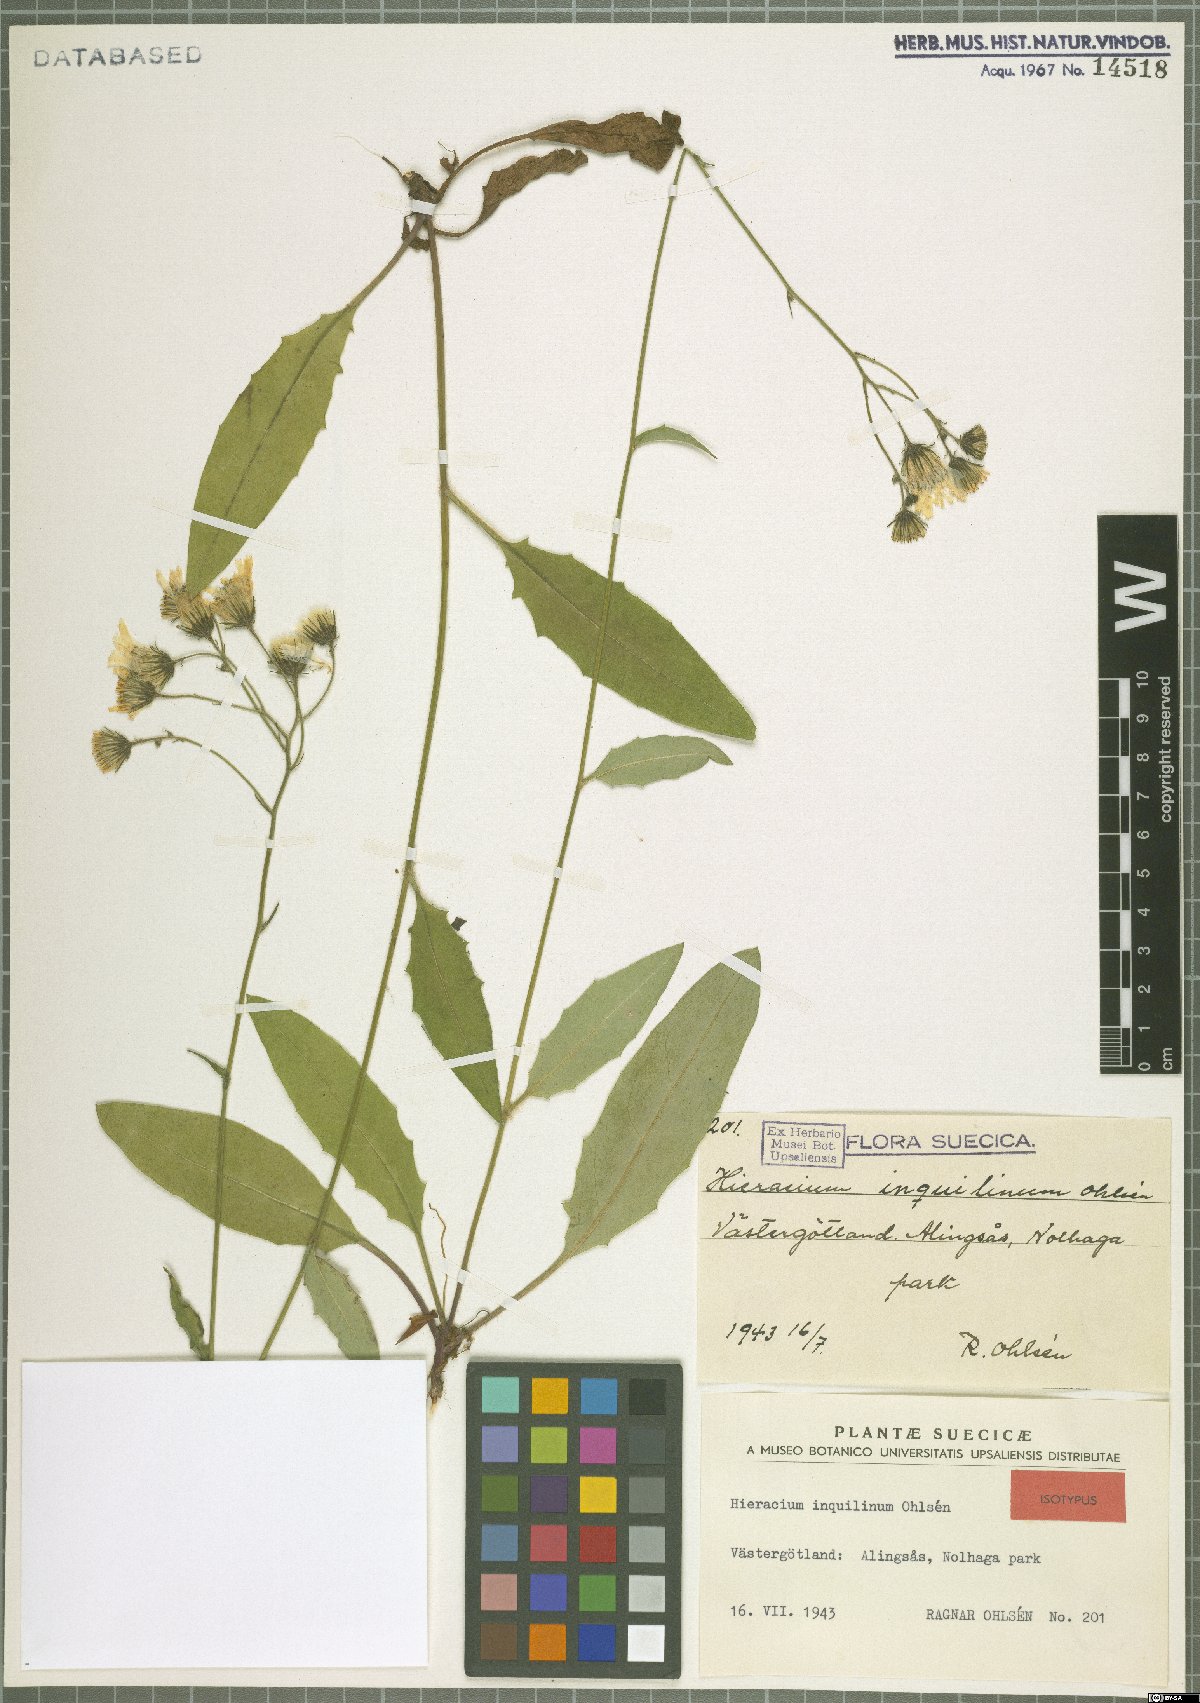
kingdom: Plantae
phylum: Tracheophyta
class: Magnoliopsida
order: Asterales
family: Asteraceae
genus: Hieracium
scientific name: Hieracium inquilinum
